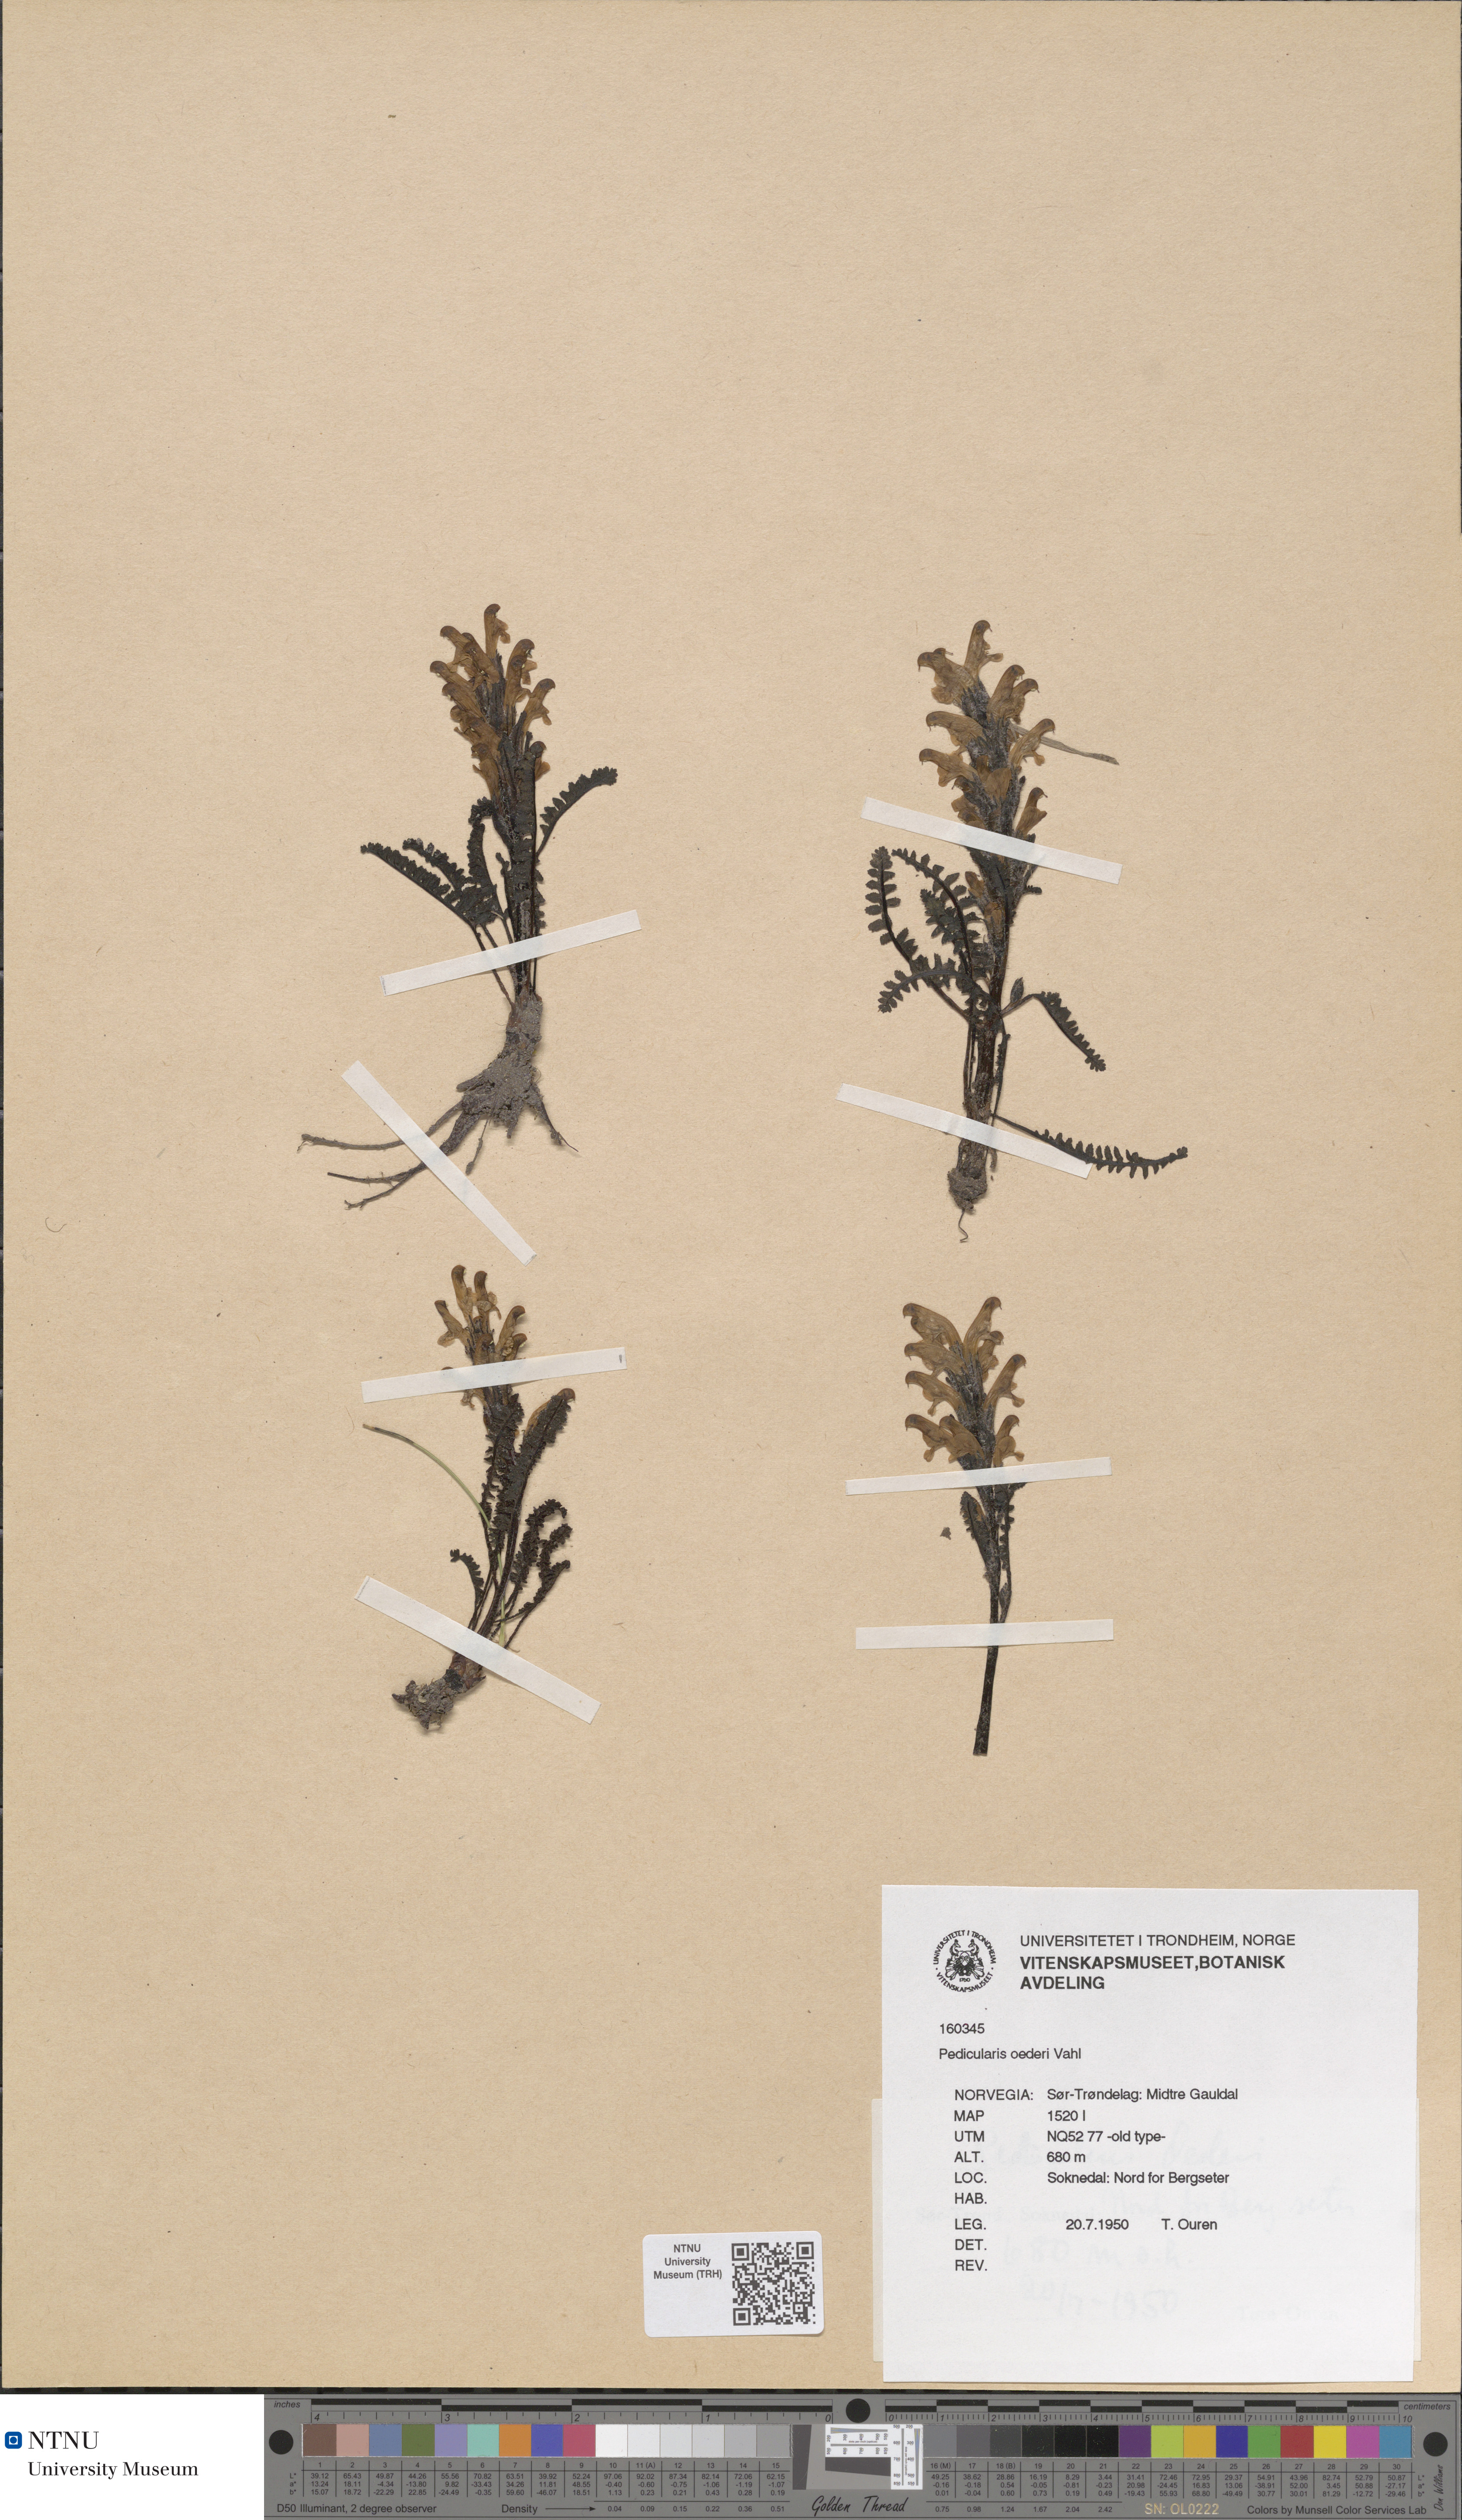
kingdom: Plantae
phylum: Tracheophyta
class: Magnoliopsida
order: Lamiales
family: Orobanchaceae
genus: Pedicularis
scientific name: Pedicularis oederi
